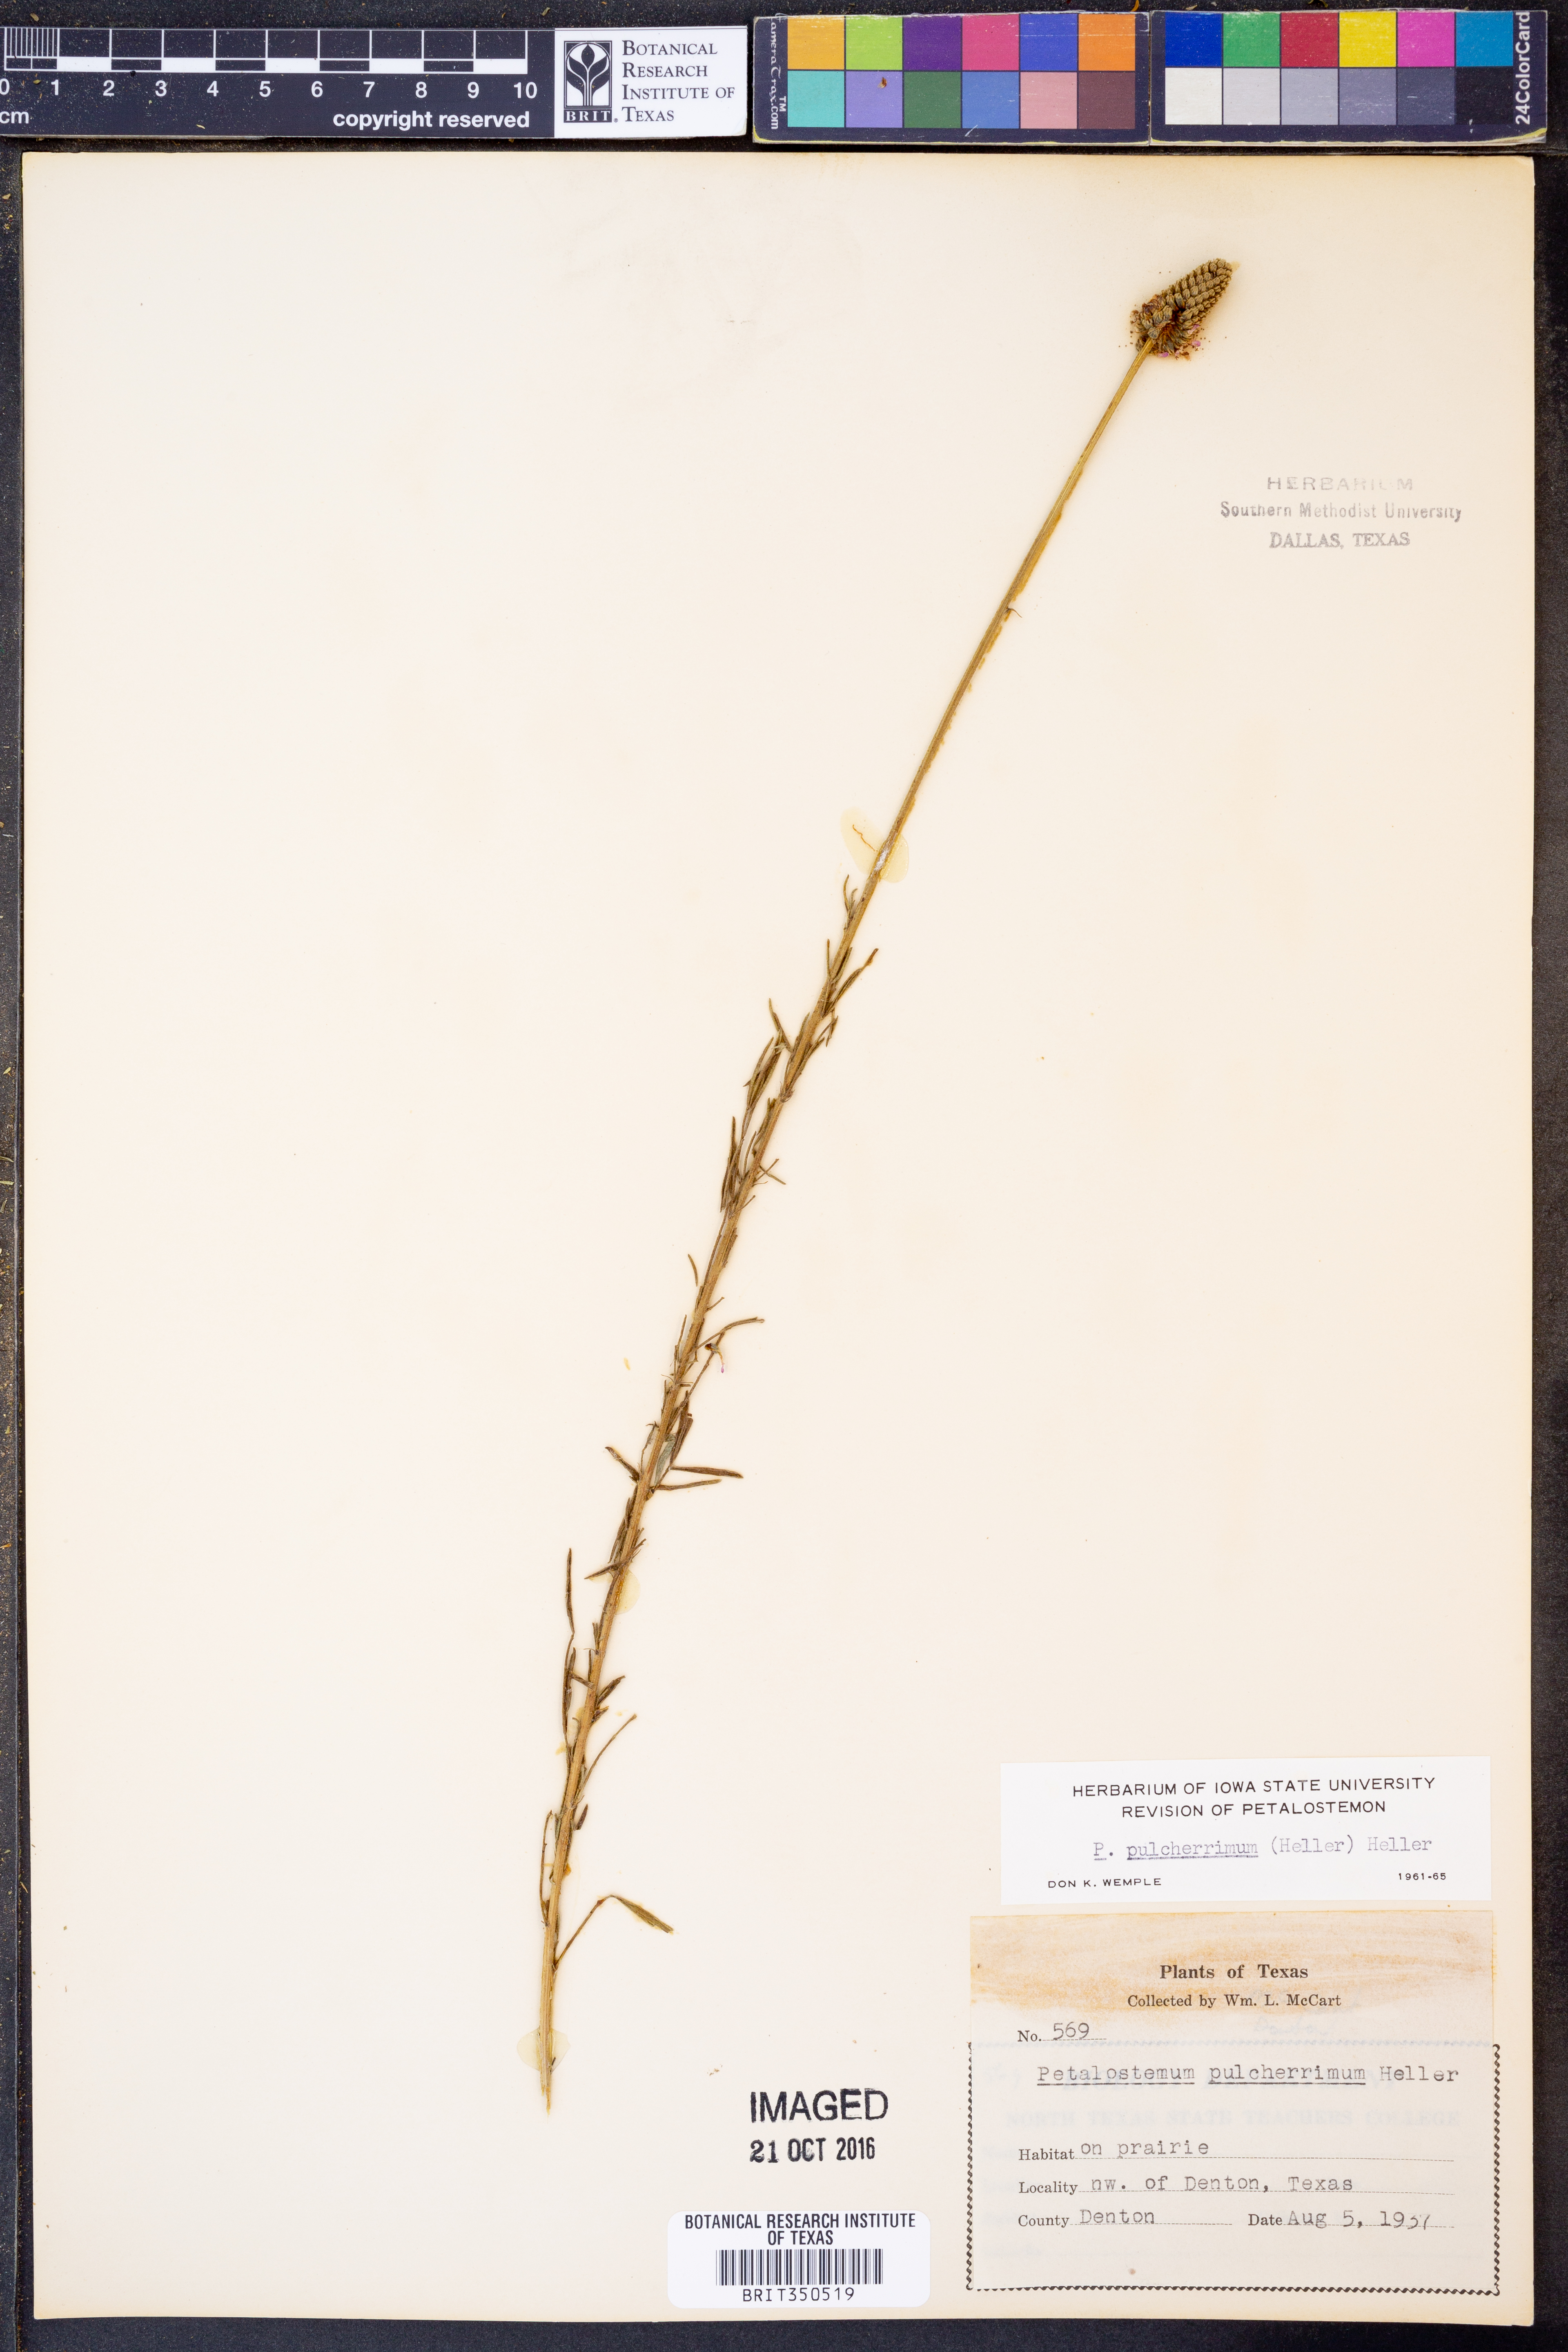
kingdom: Plantae
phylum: Tracheophyta
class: Magnoliopsida
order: Fabales
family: Fabaceae
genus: Dalea
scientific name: Dalea compacta
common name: Compact prairie-clover
